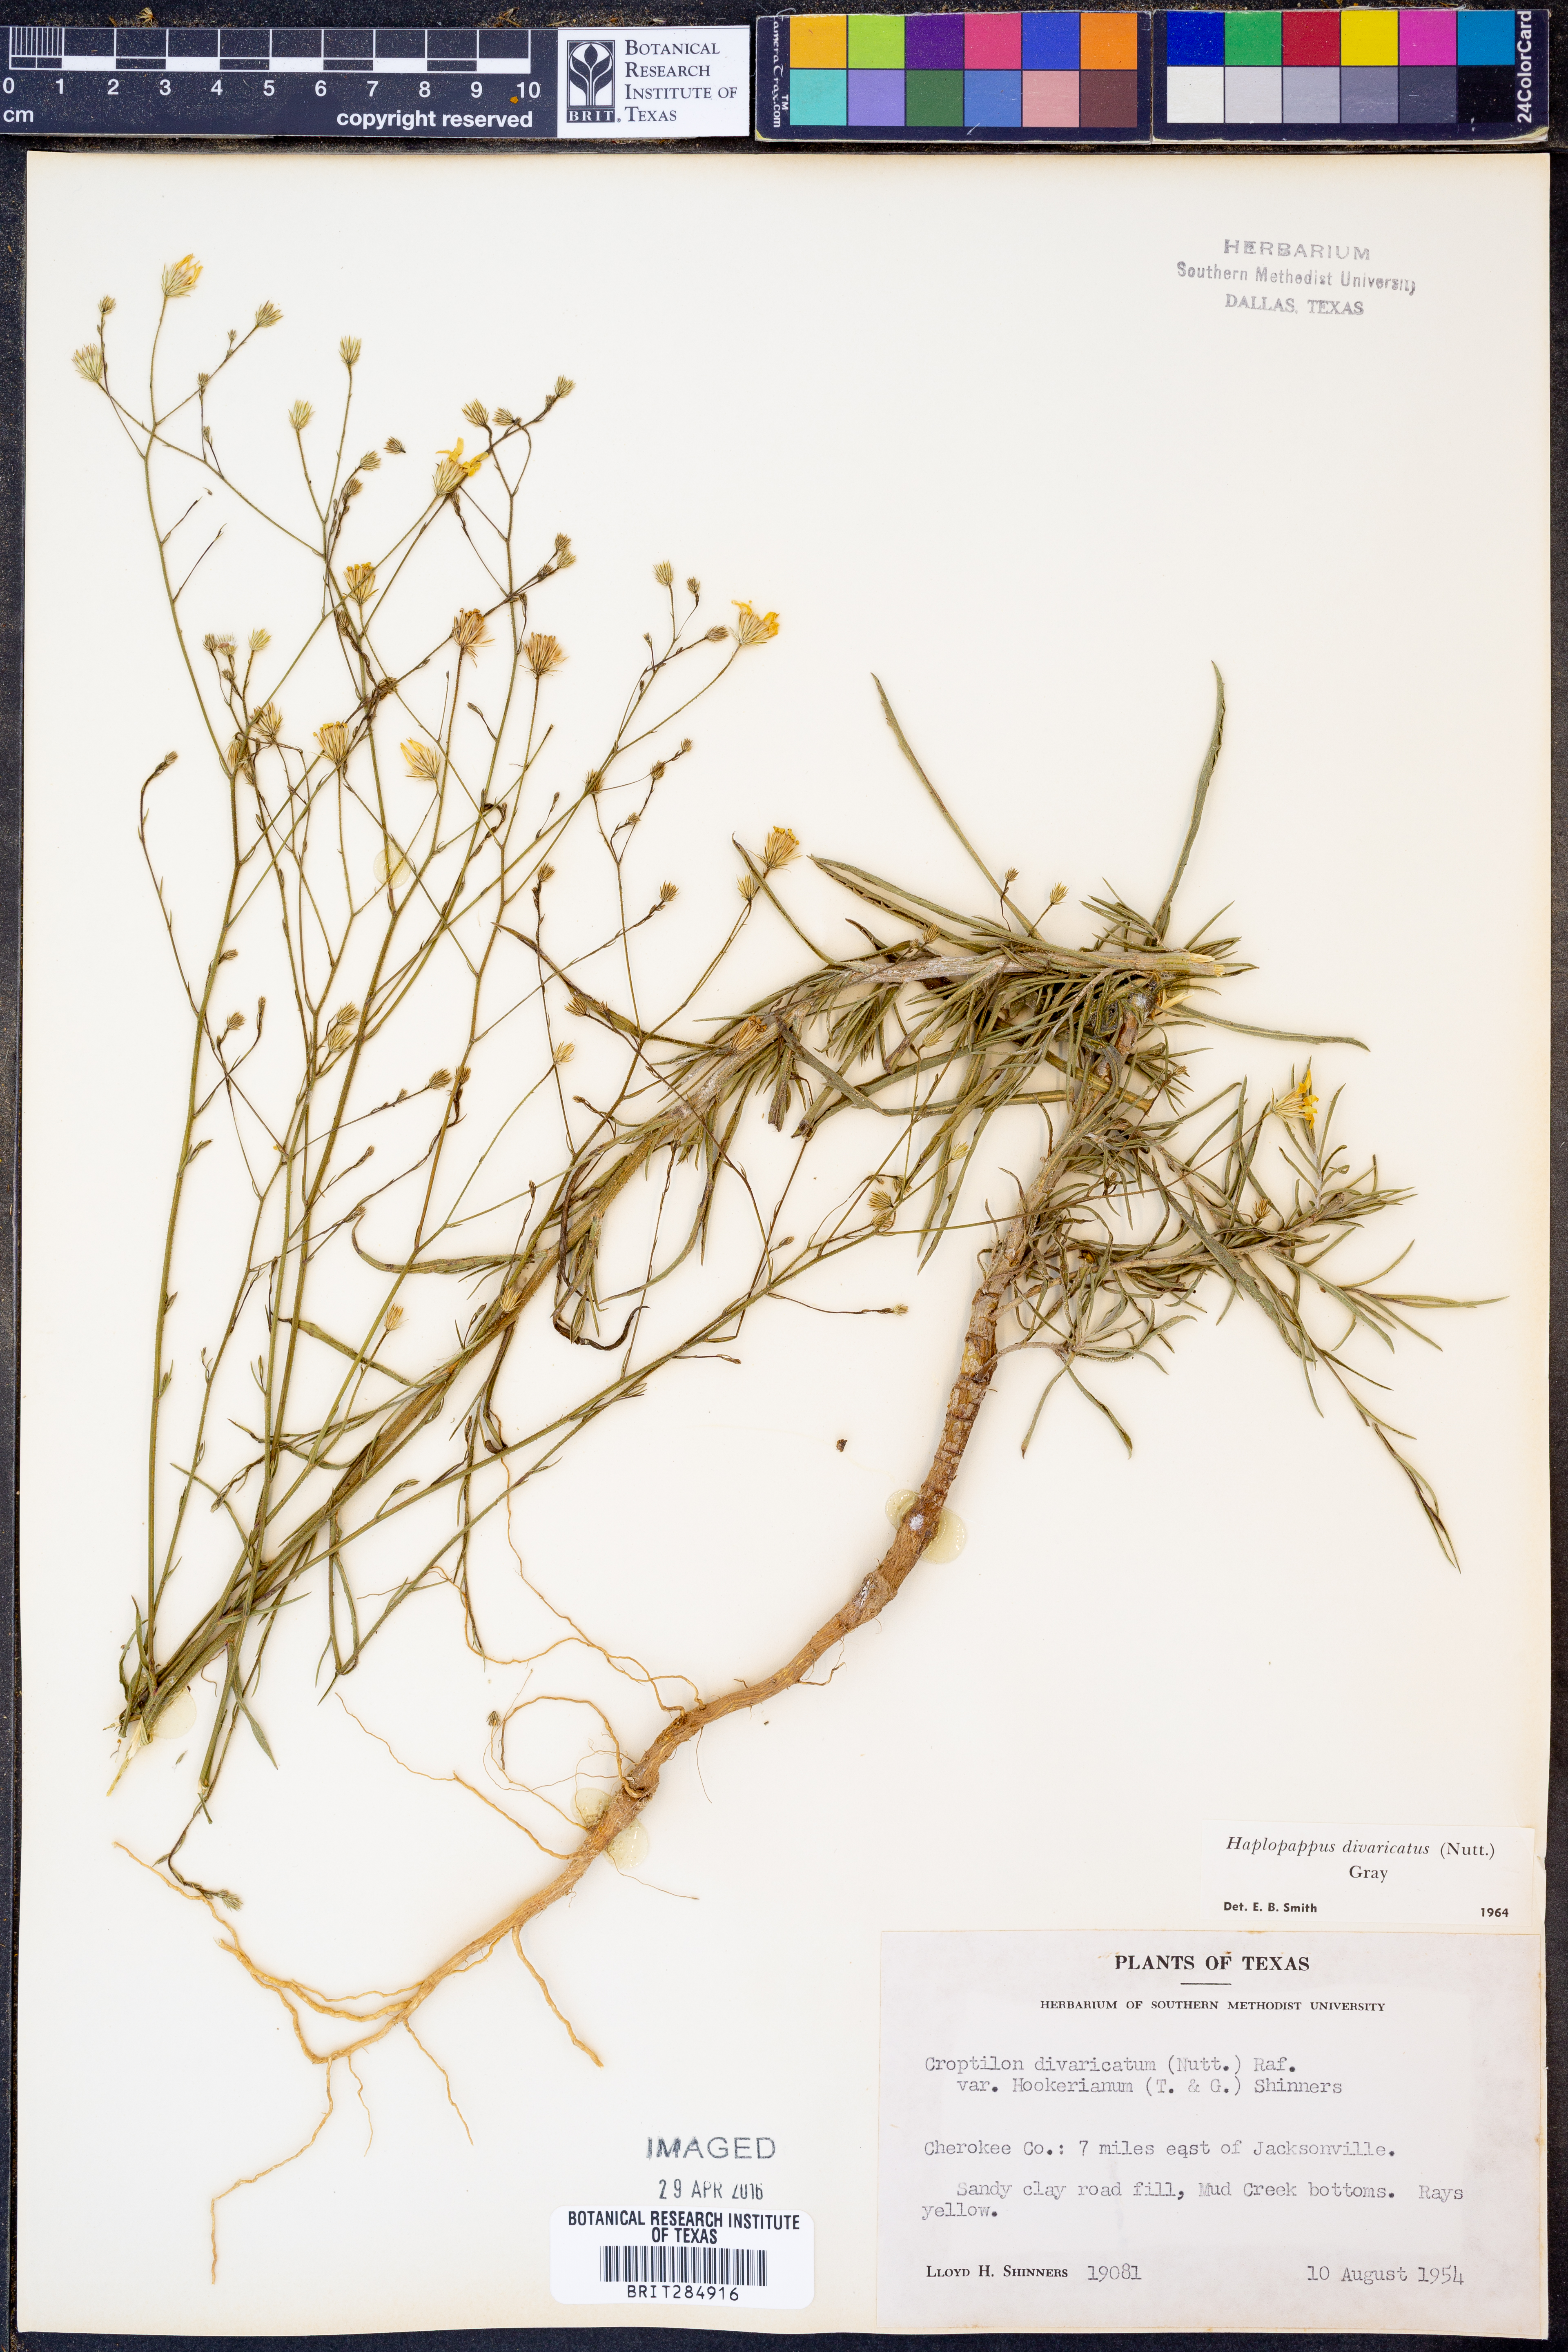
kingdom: Plantae
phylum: Tracheophyta
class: Magnoliopsida
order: Asterales
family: Asteraceae
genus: Croptilon
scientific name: Croptilon divaricatum
